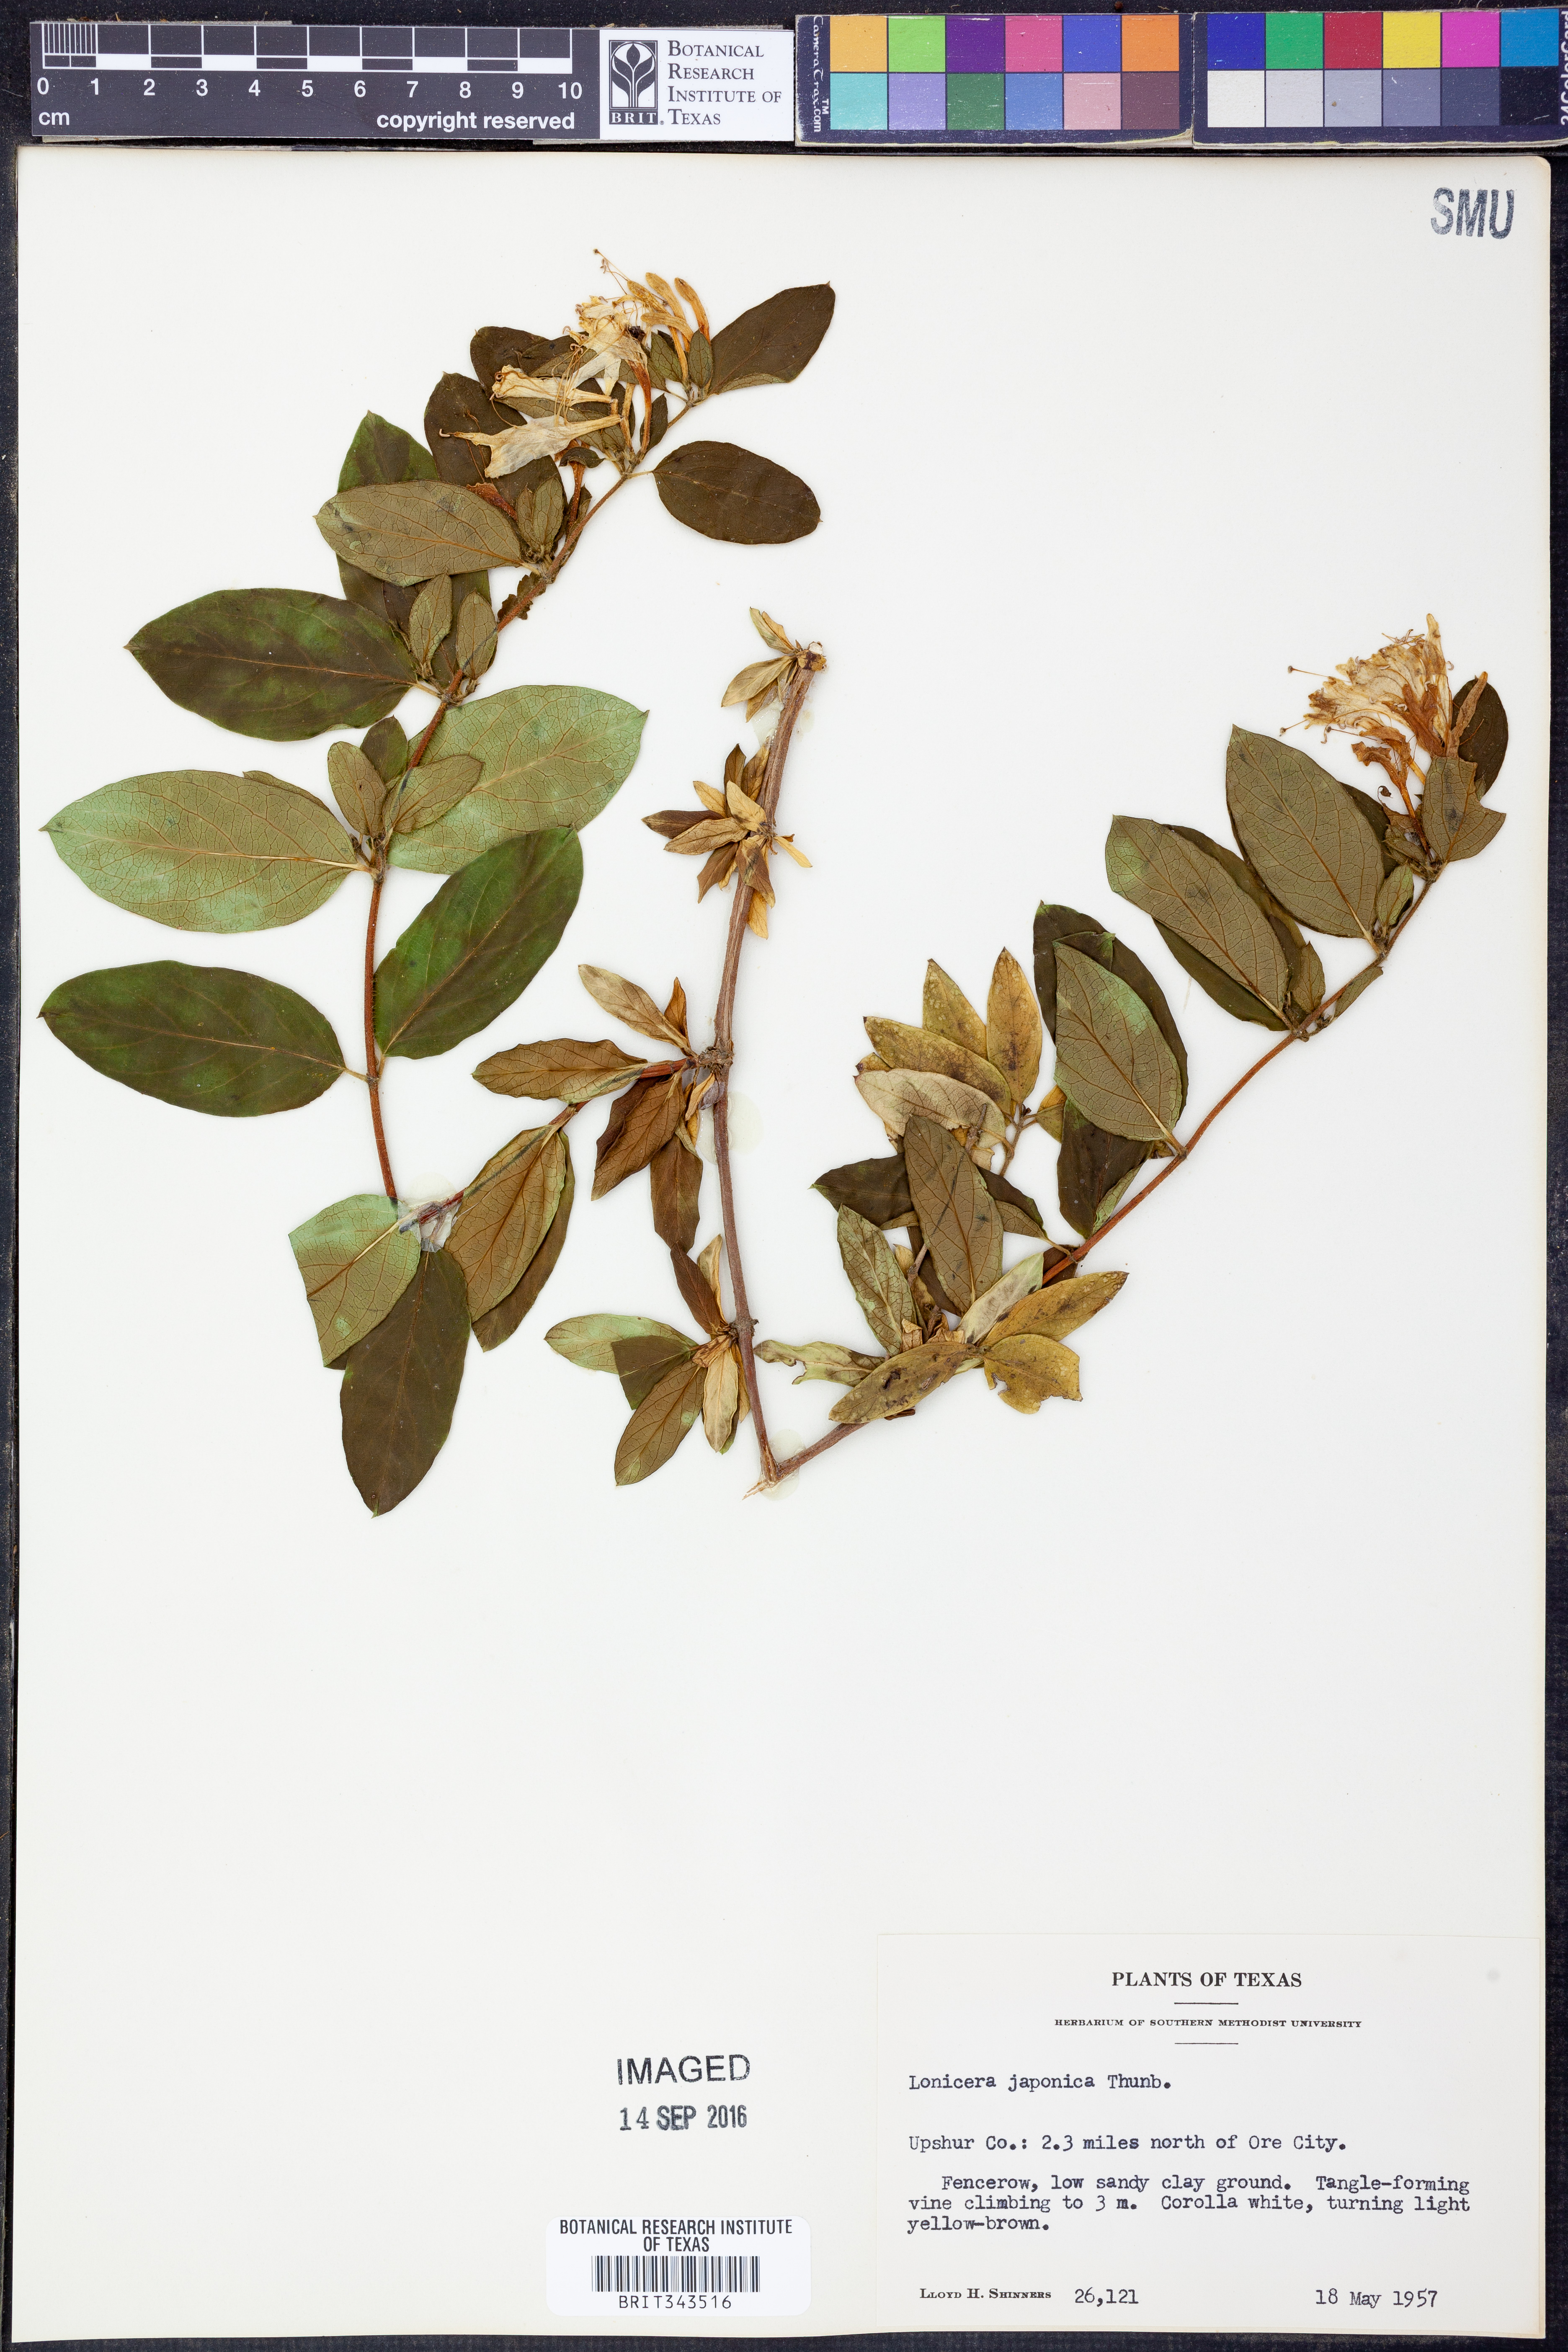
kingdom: Plantae
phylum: Tracheophyta
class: Magnoliopsida
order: Dipsacales
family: Caprifoliaceae
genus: Lonicera
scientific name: Lonicera japonica
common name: Japanese honeysuckle
